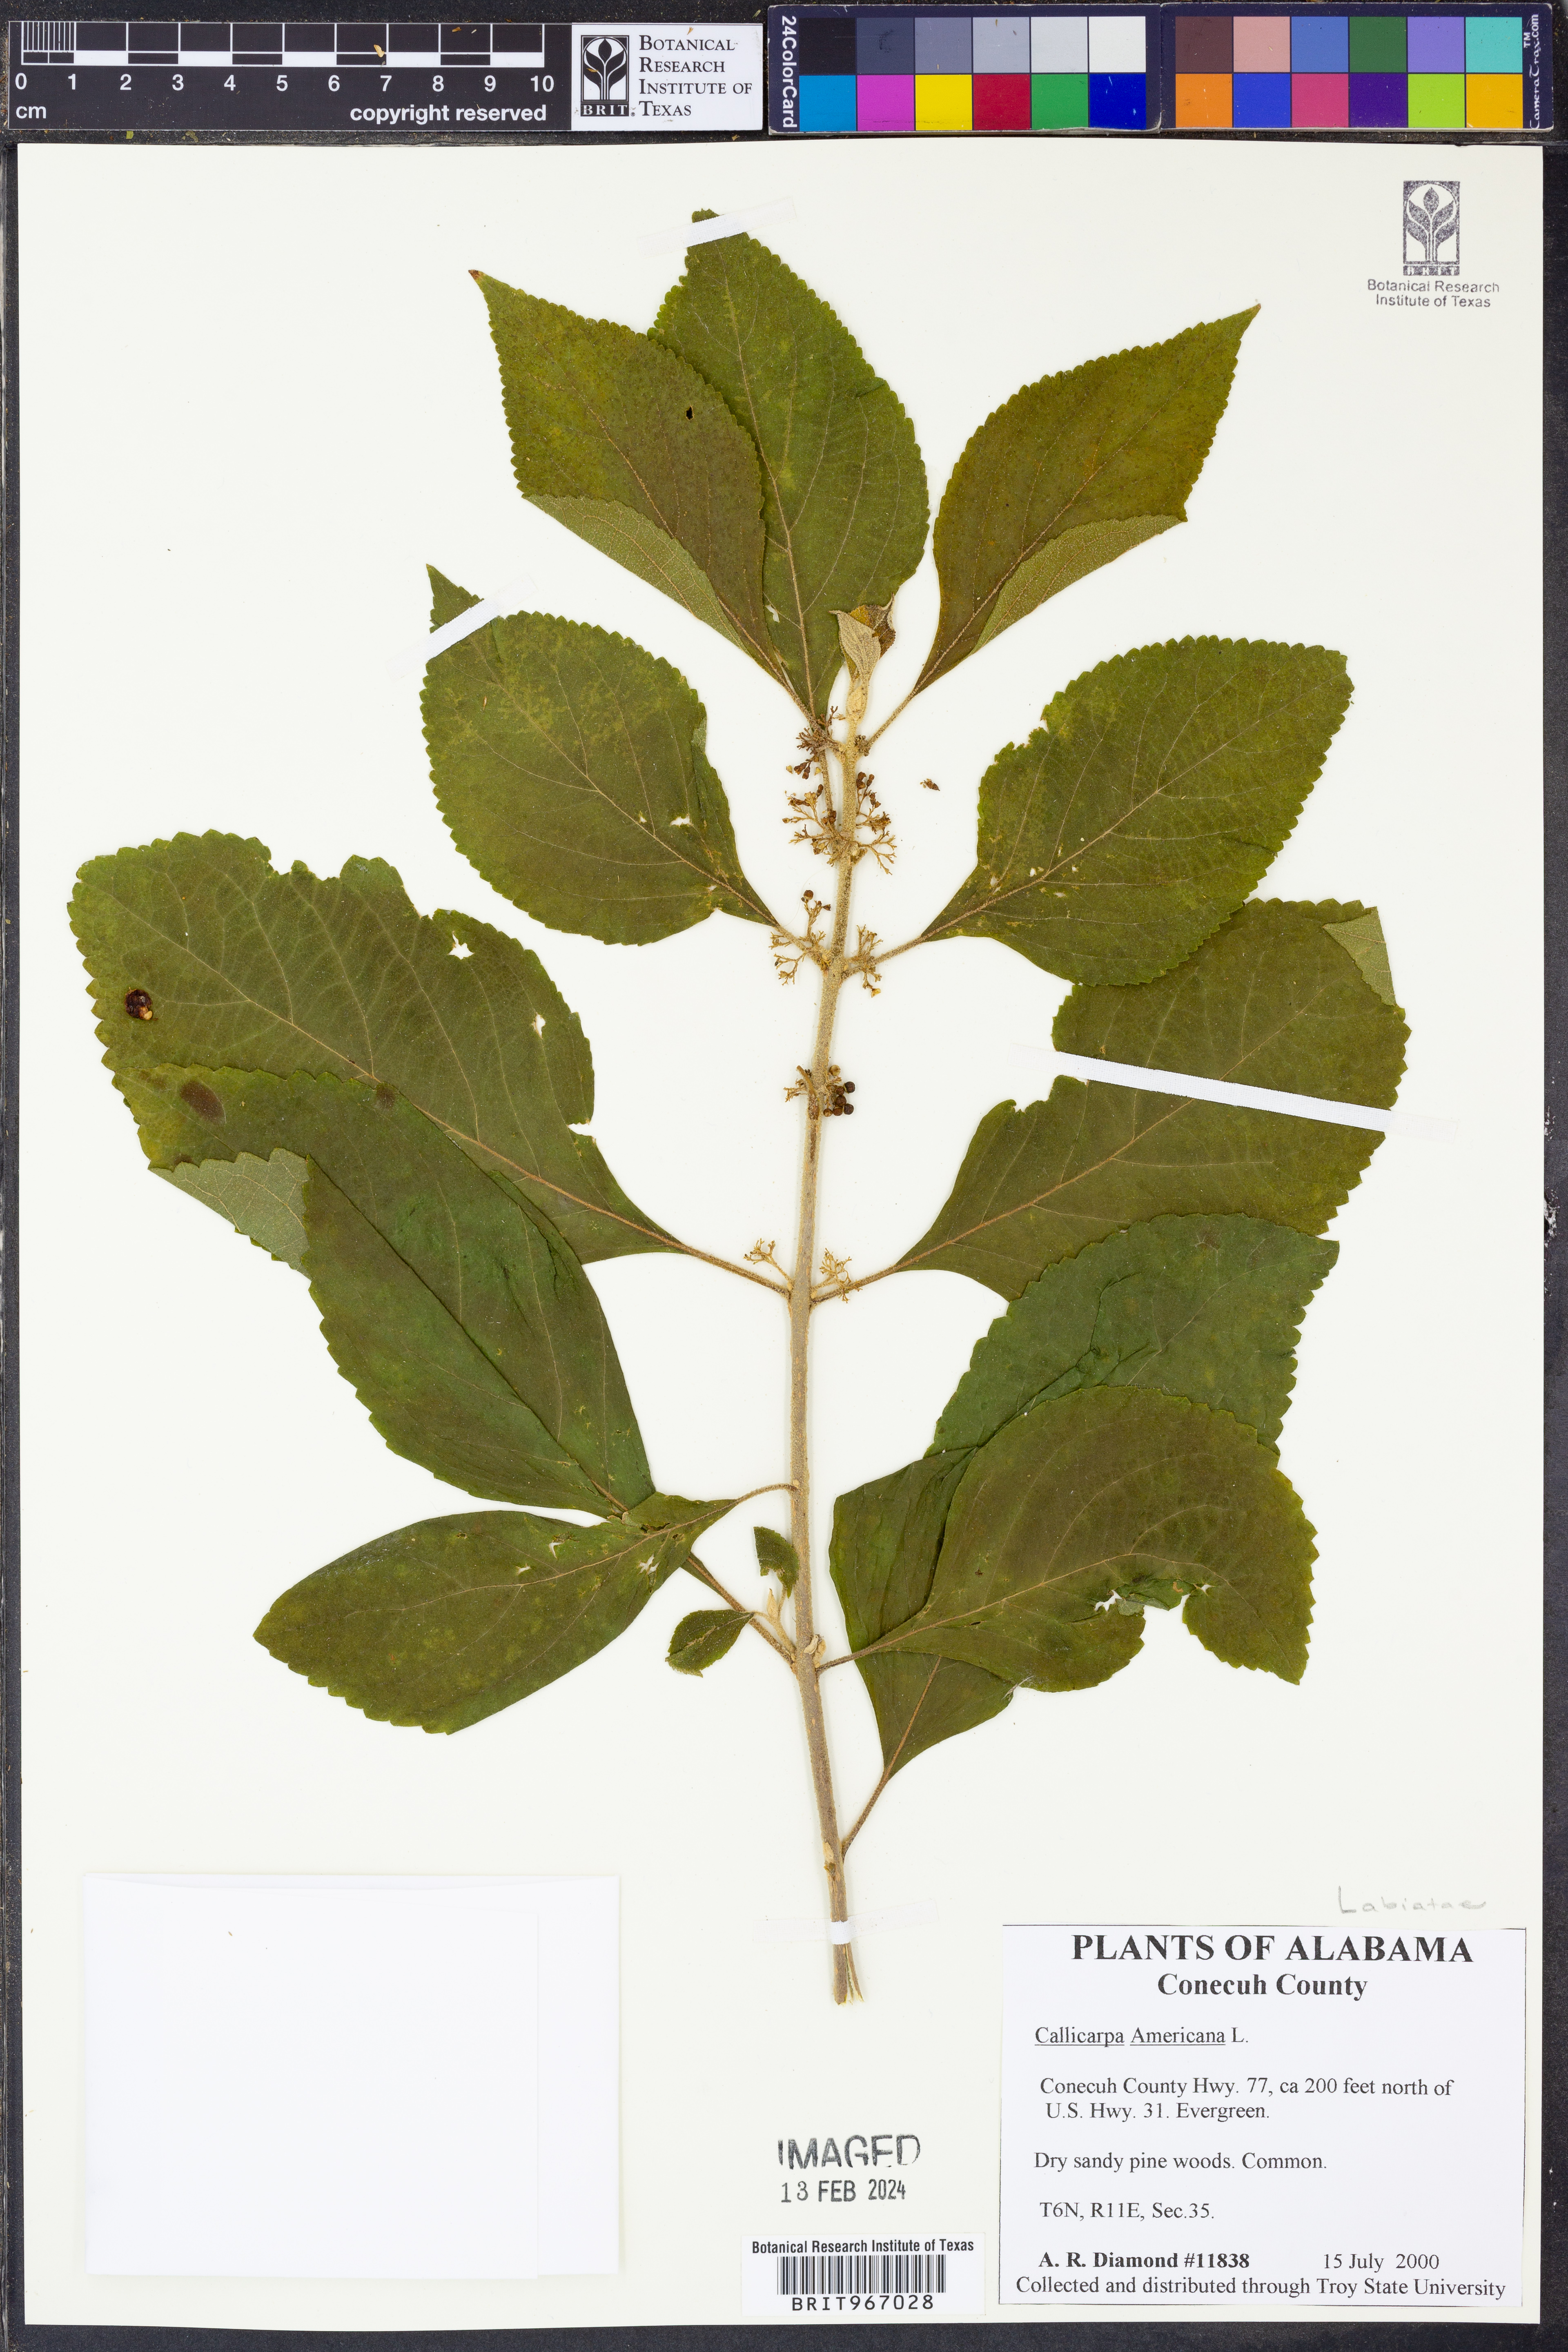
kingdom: Plantae
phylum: Tracheophyta
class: Magnoliopsida
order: Lamiales
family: Lamiaceae
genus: Callicarpa
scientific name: Callicarpa americana
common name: American beautyberry
